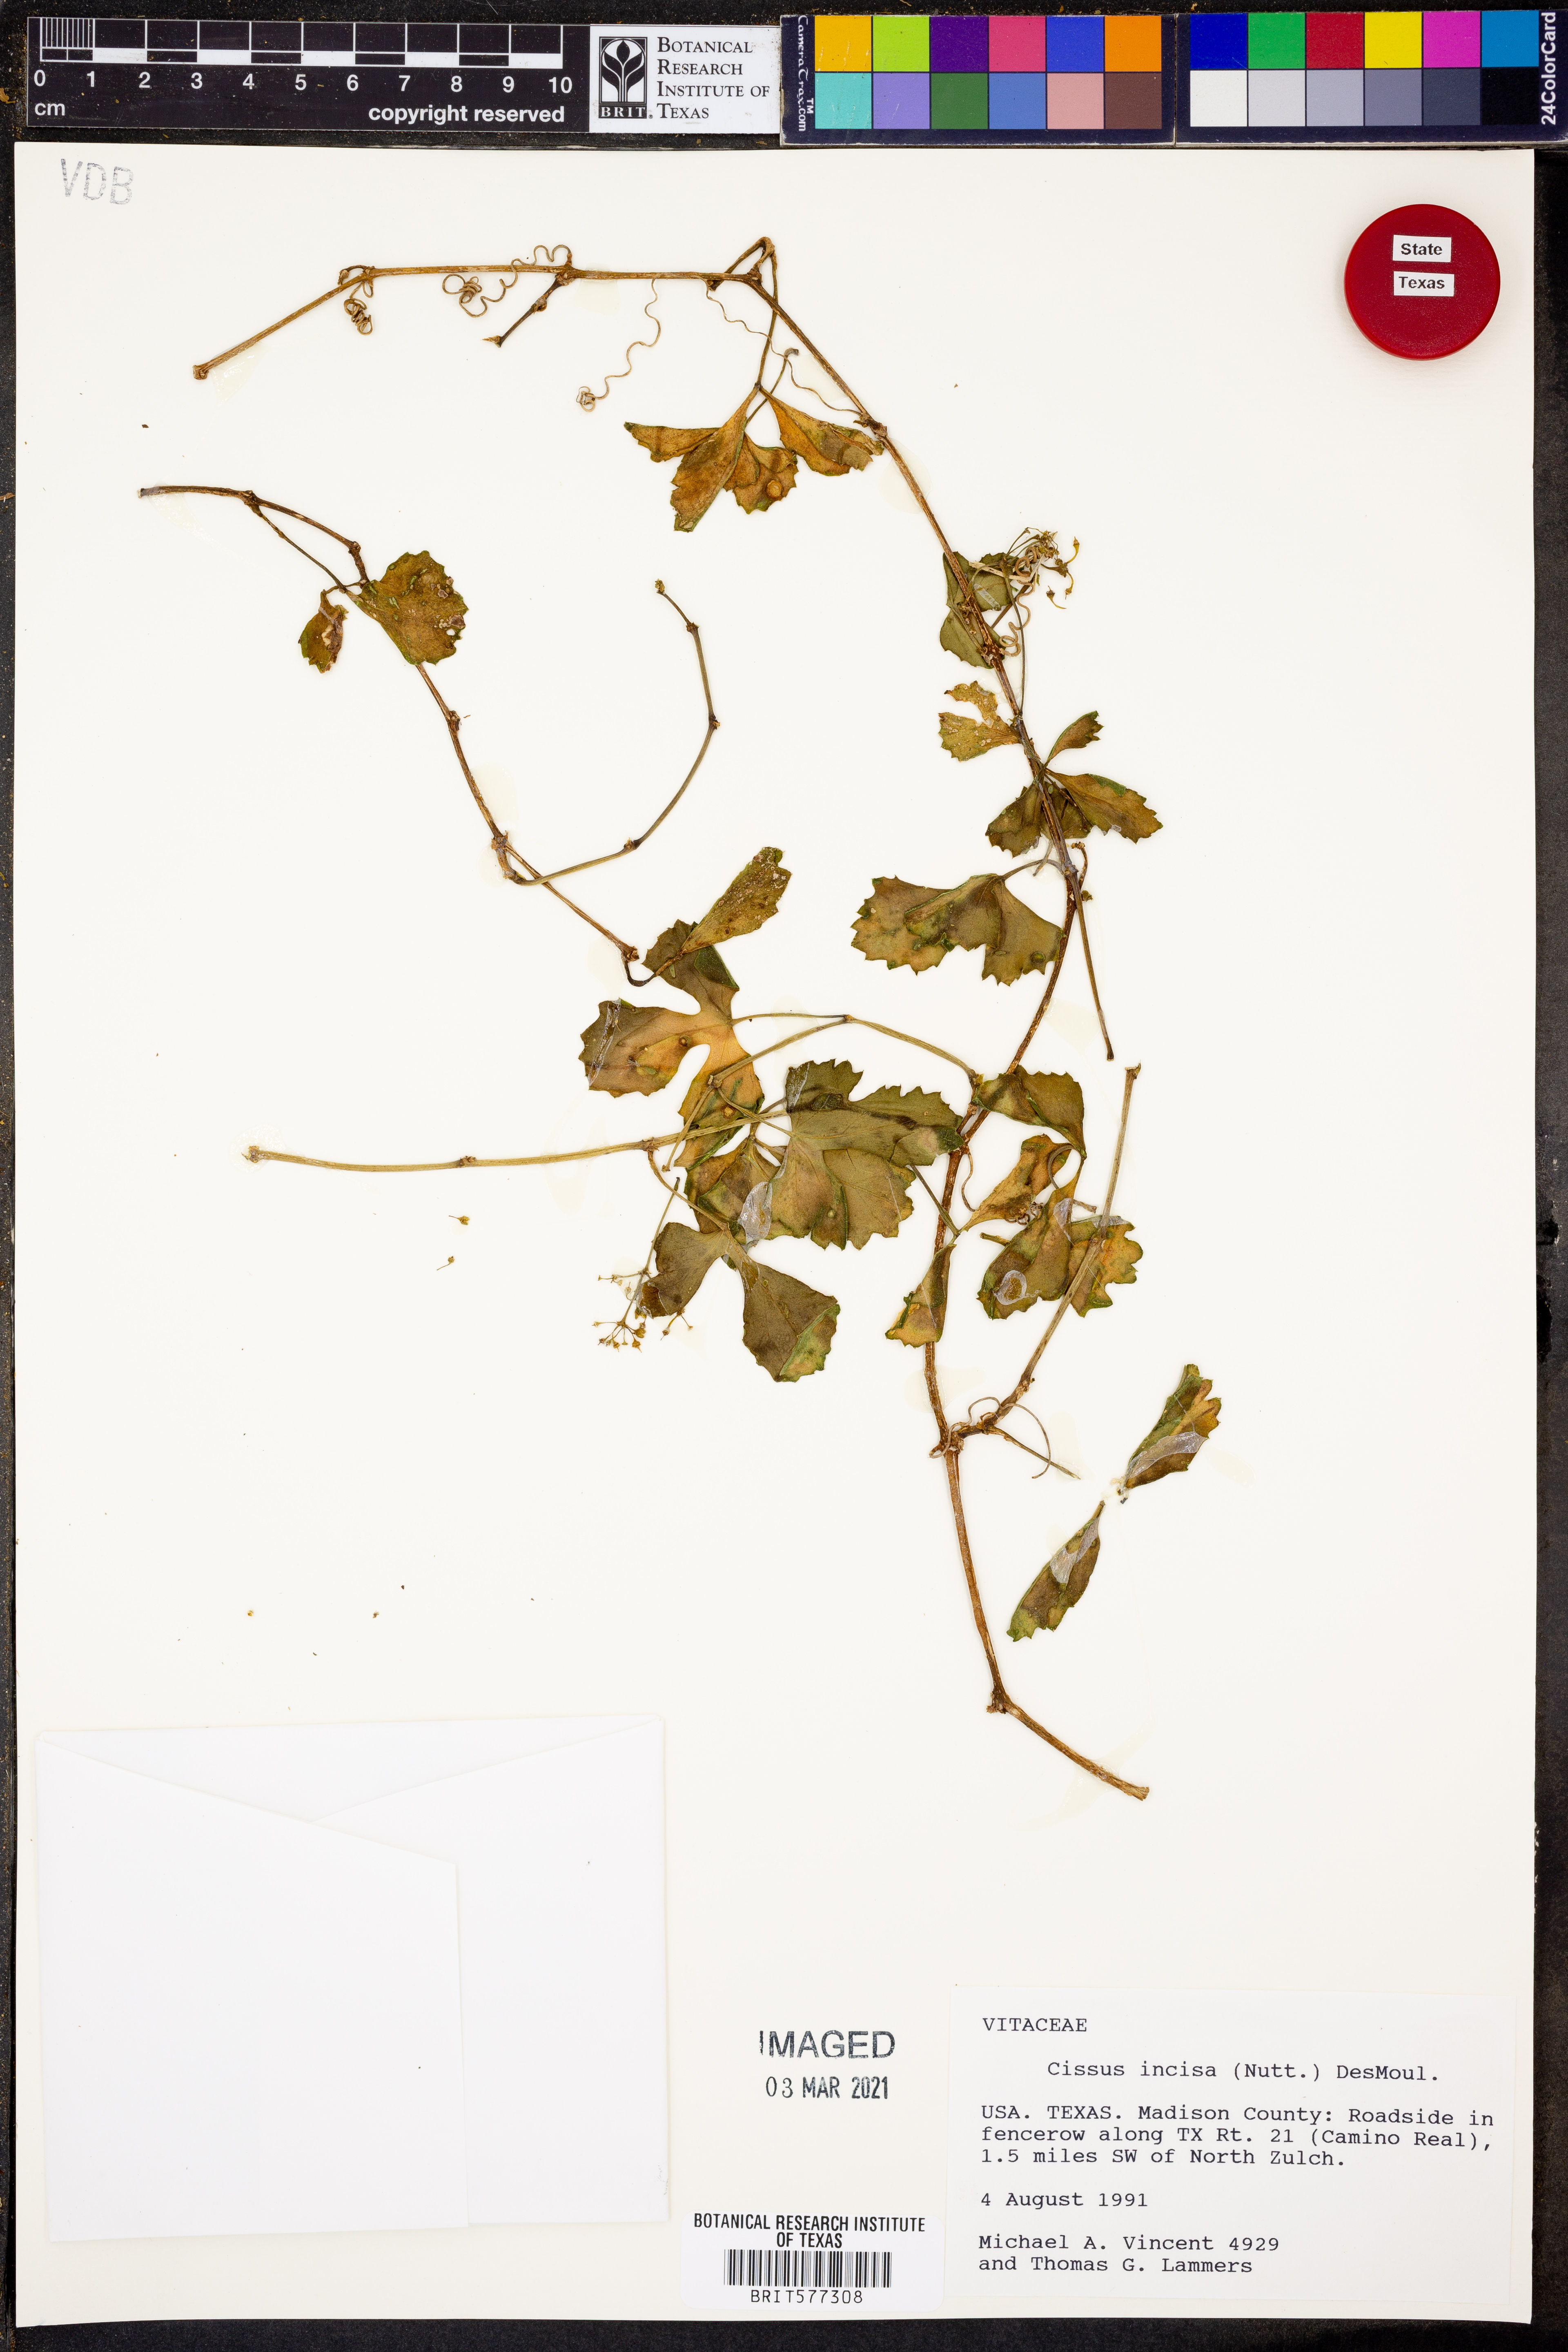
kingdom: Plantae
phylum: Tracheophyta
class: Magnoliopsida
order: Vitales
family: Vitaceae
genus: Cissus
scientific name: Cissus trifoliata
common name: Vine-sorrel
